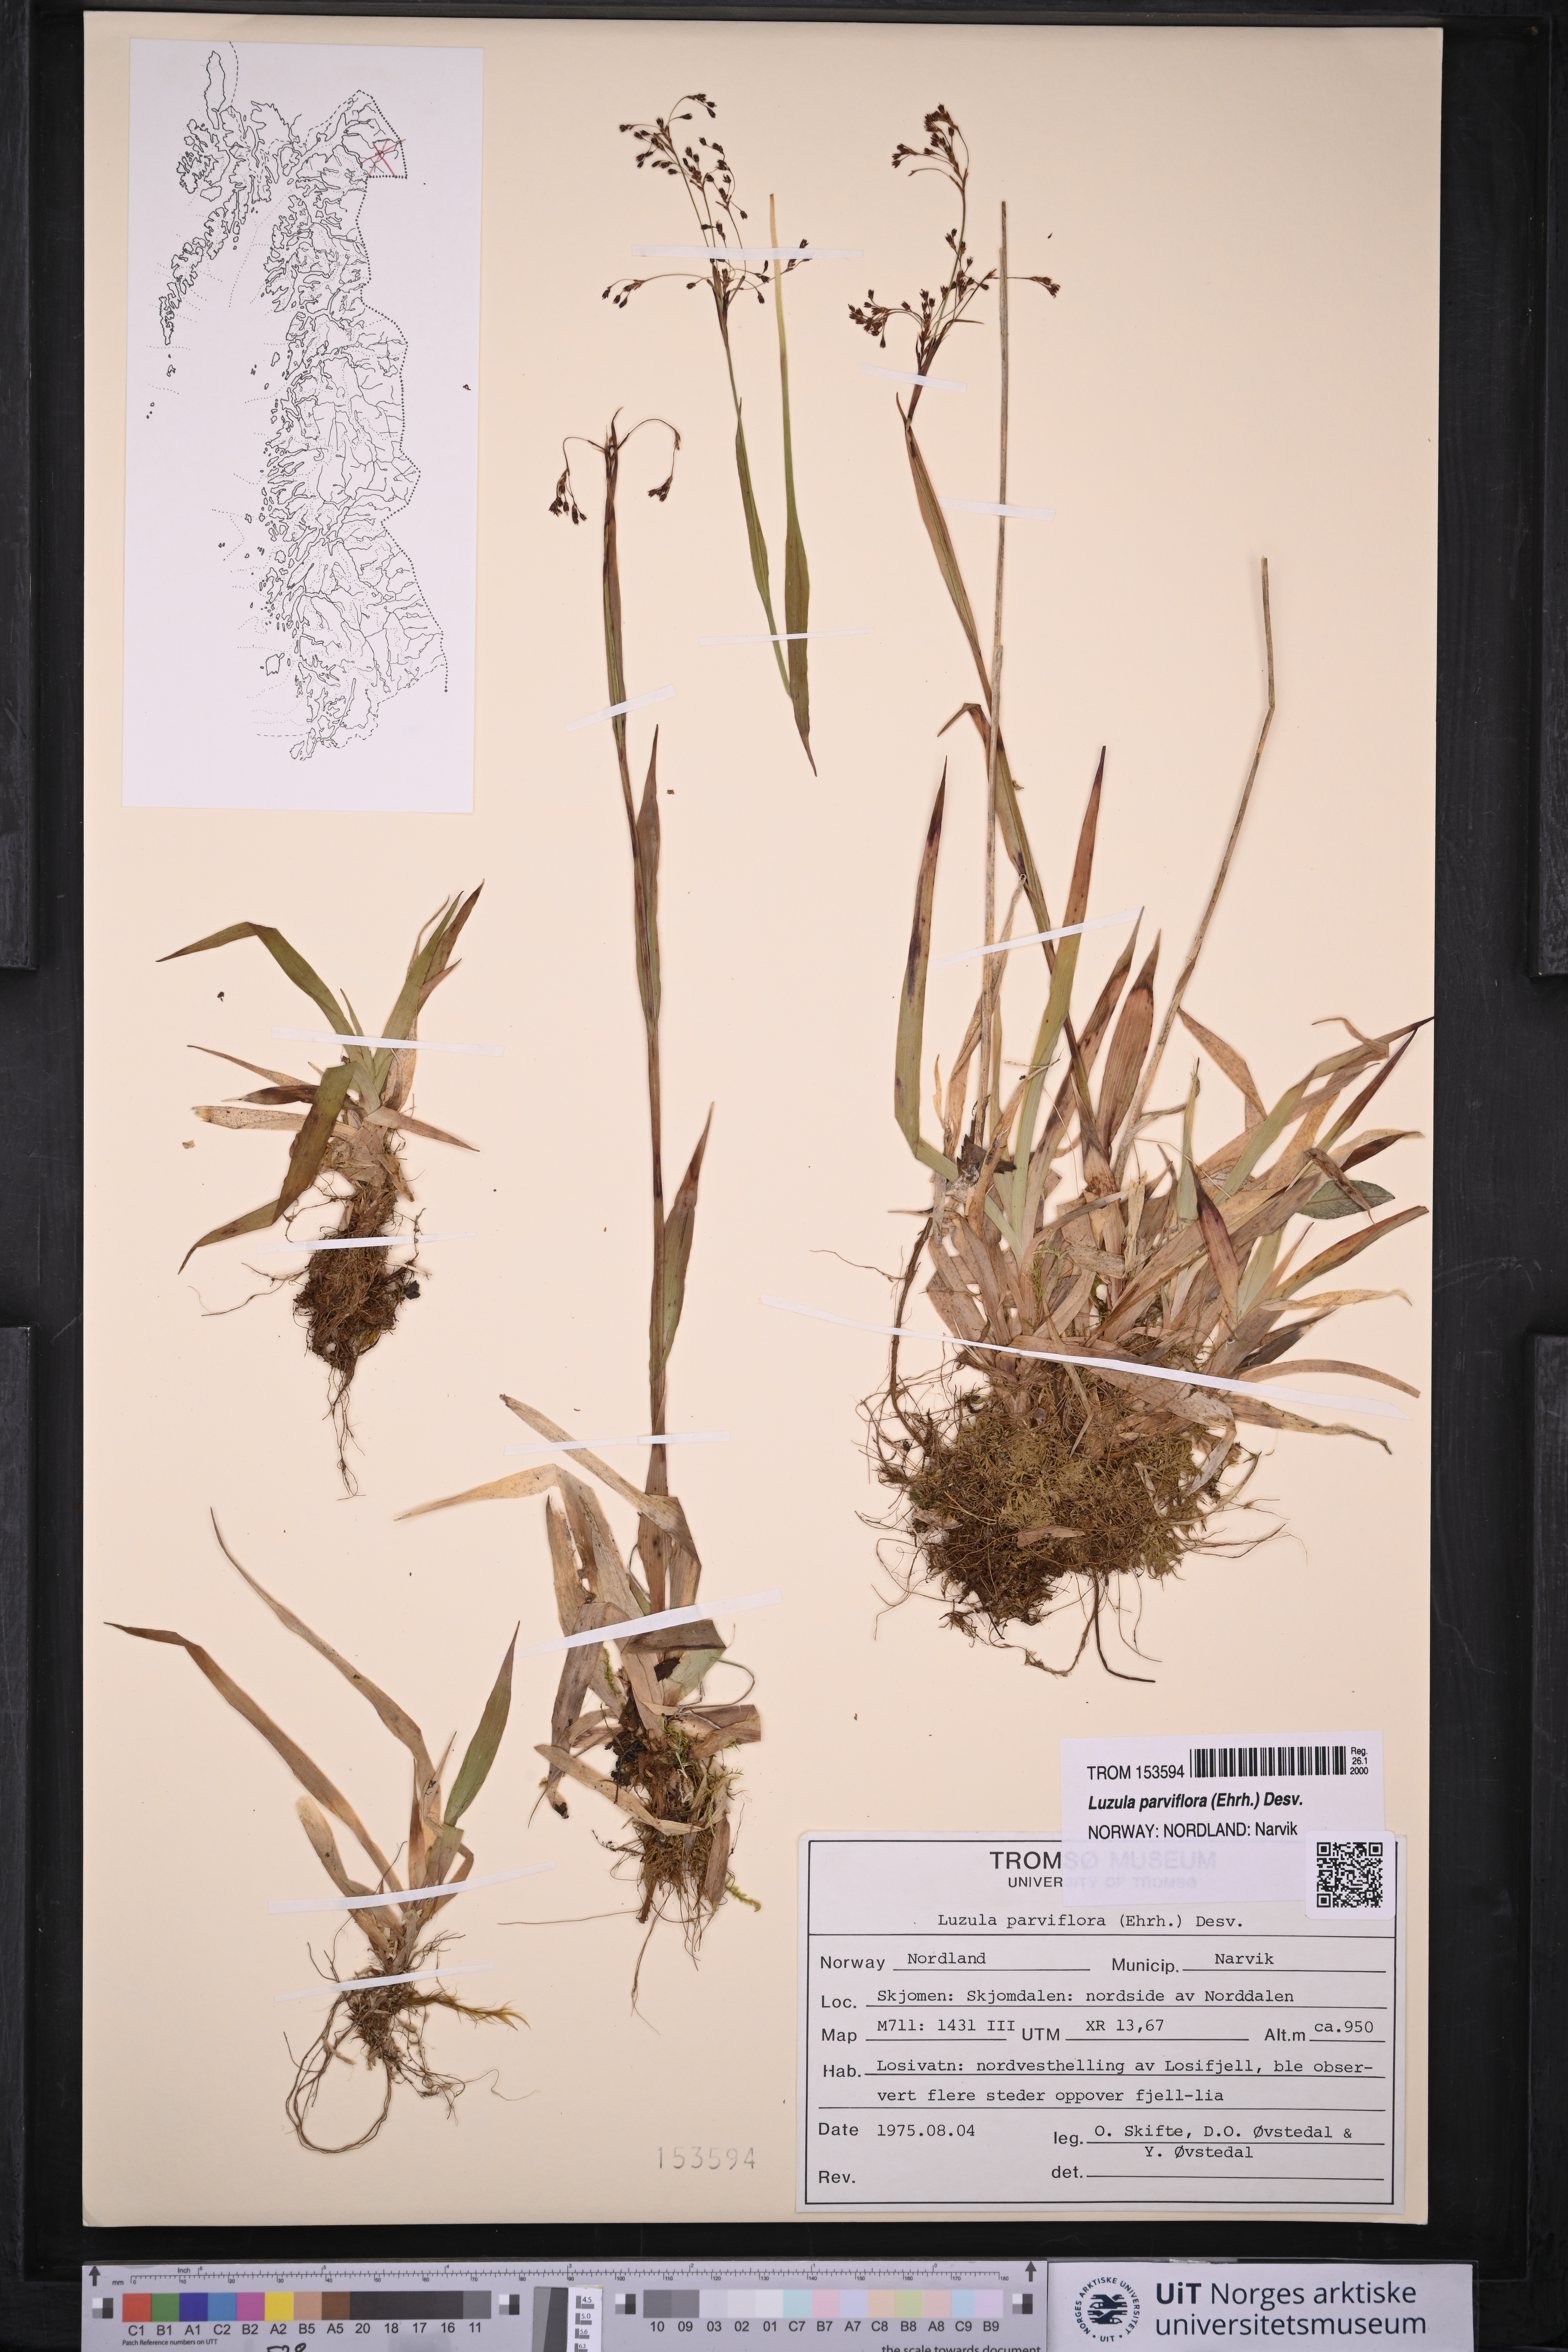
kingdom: Plantae
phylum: Tracheophyta
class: Liliopsida
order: Poales
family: Juncaceae
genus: Luzula
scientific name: Luzula parviflora
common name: Millet woodrush
